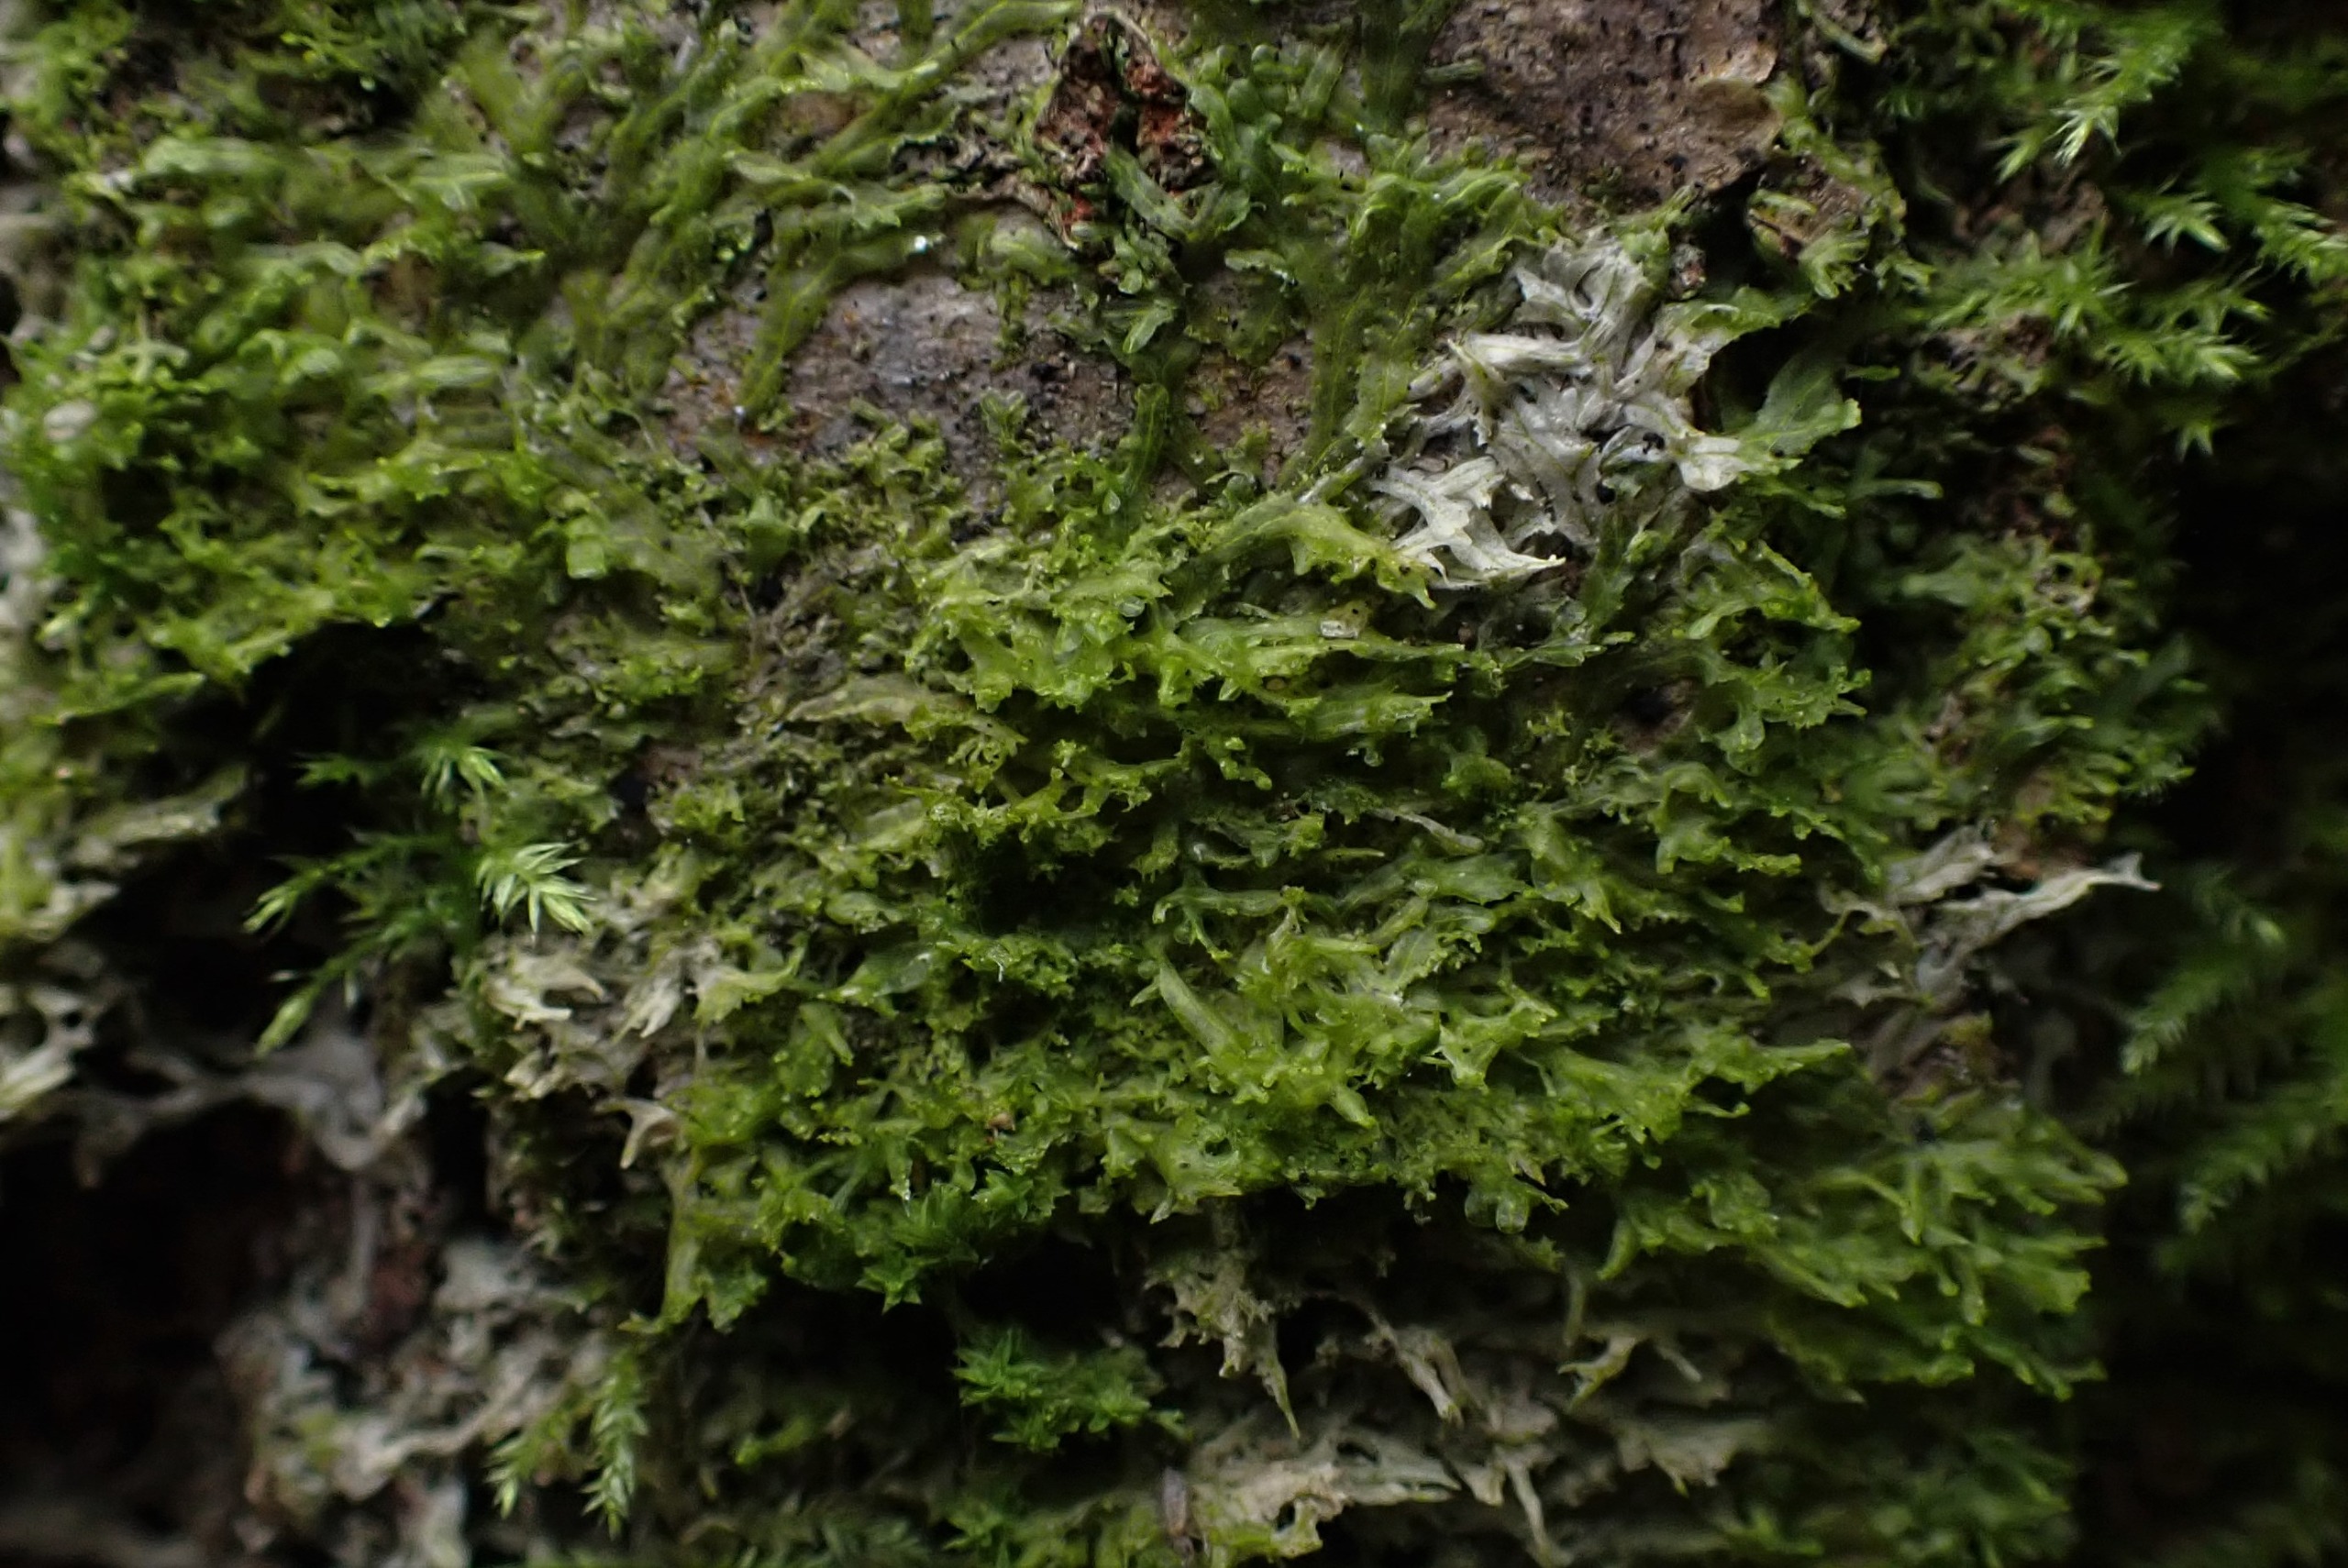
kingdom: Plantae
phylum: Marchantiophyta
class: Jungermanniopsida
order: Metzgeriales
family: Aneuraceae
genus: Riccardia
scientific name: Riccardia palmata
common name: Blågrøn gaffelløv
